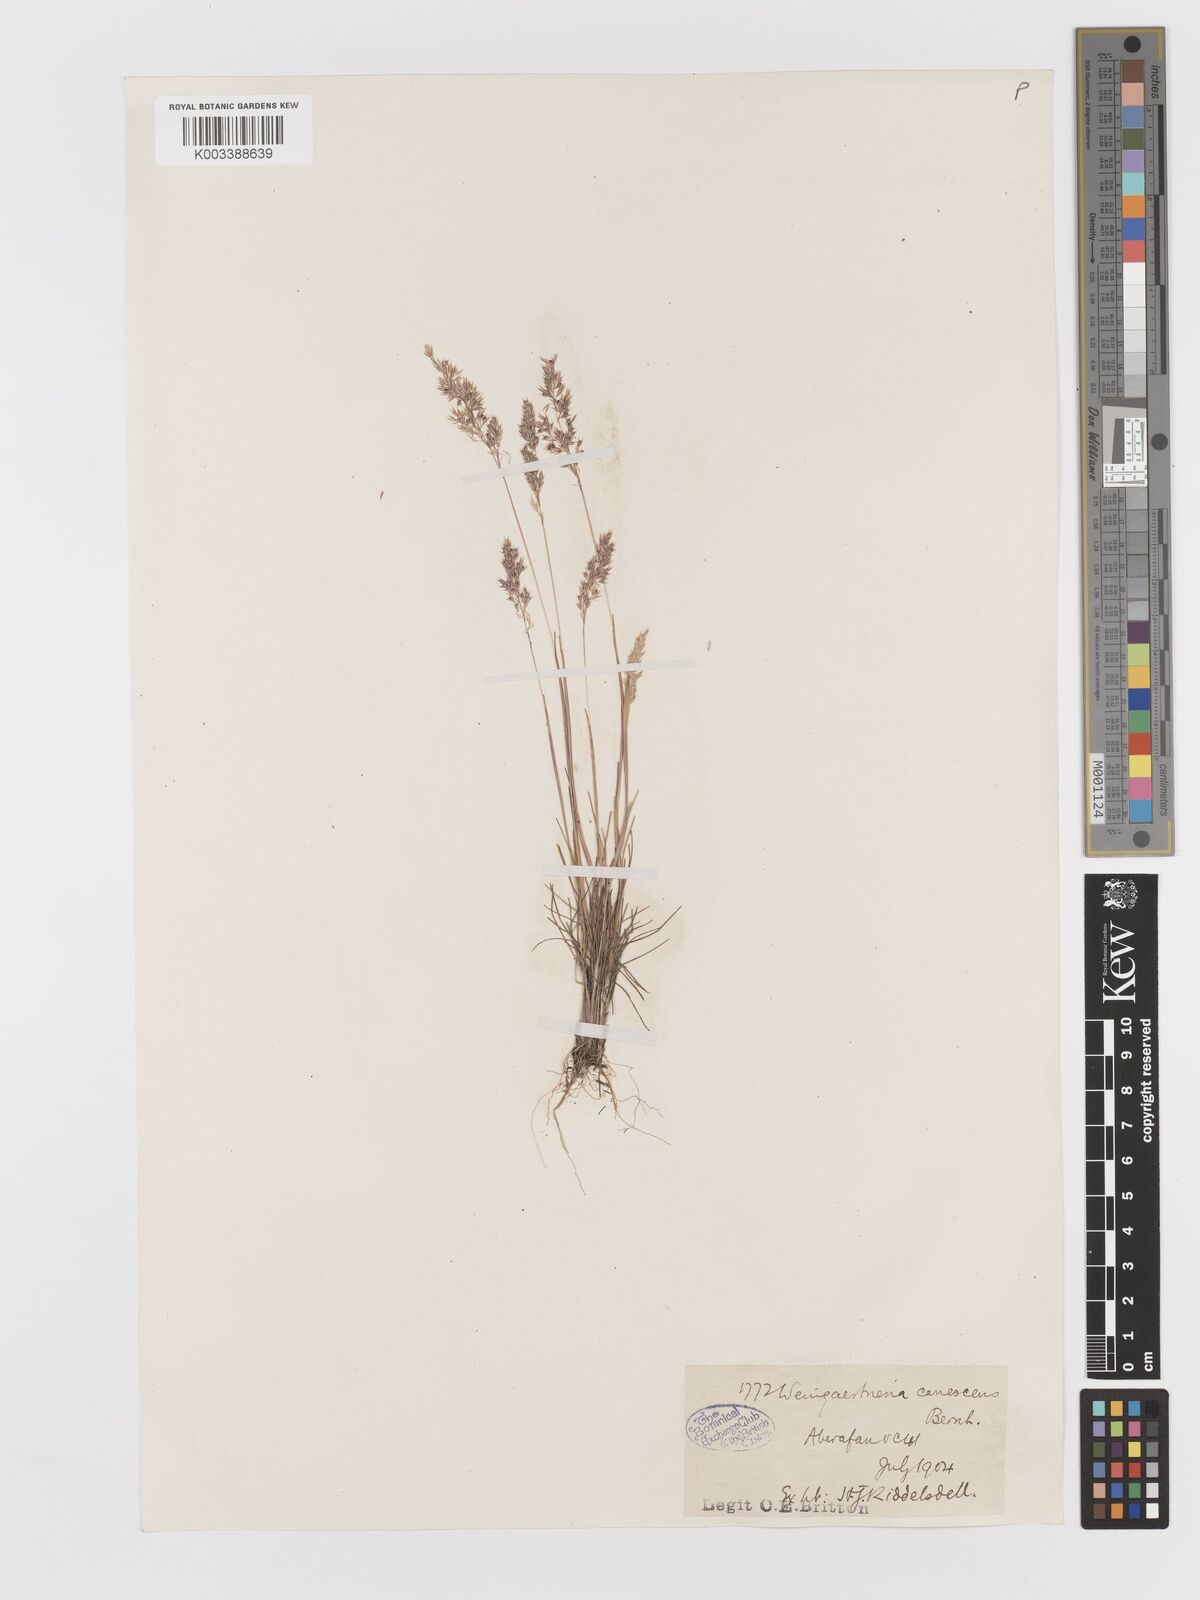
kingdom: Plantae
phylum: Tracheophyta
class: Liliopsida
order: Poales
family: Poaceae
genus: Corynephorus
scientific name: Corynephorus canescens
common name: Grey hair-grass
